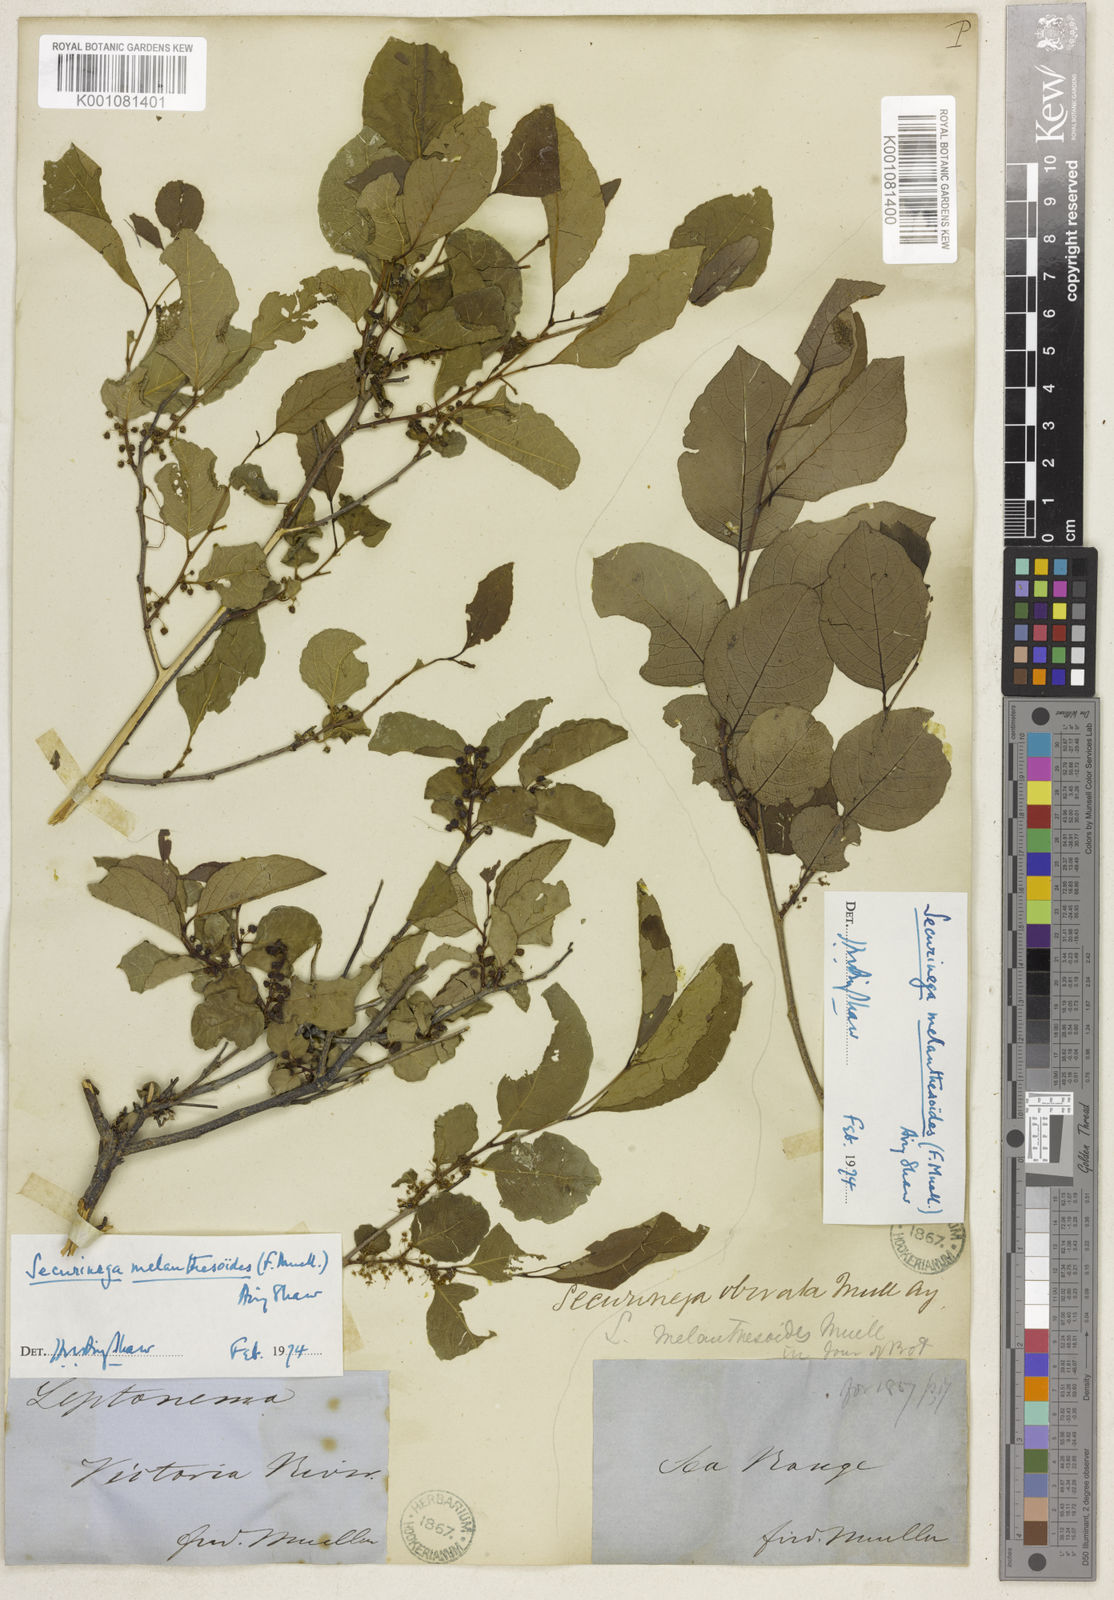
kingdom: Plantae
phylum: Tracheophyta
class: Magnoliopsida
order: Malpighiales
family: Phyllanthaceae
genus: Flueggea
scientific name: Flueggea virosa
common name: Common bushweed
